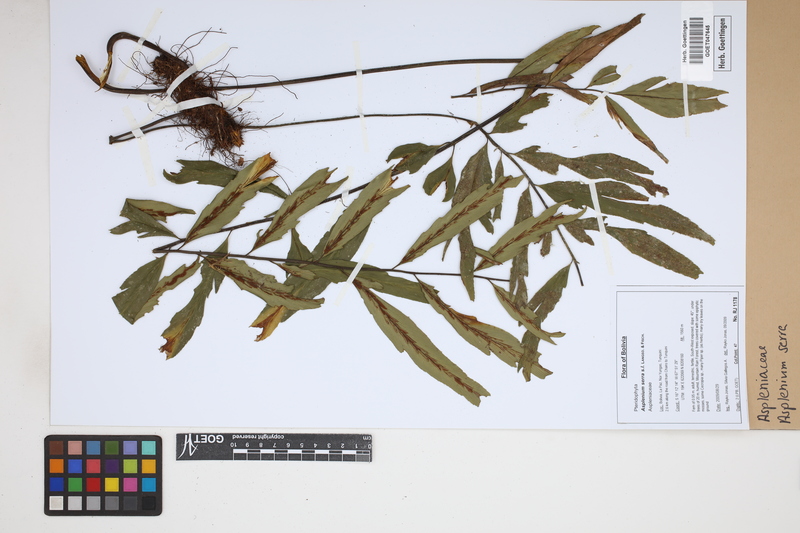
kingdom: Plantae
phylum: Tracheophyta
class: Polypodiopsida
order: Polypodiales
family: Aspleniaceae
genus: Asplenium
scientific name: Asplenium serra
